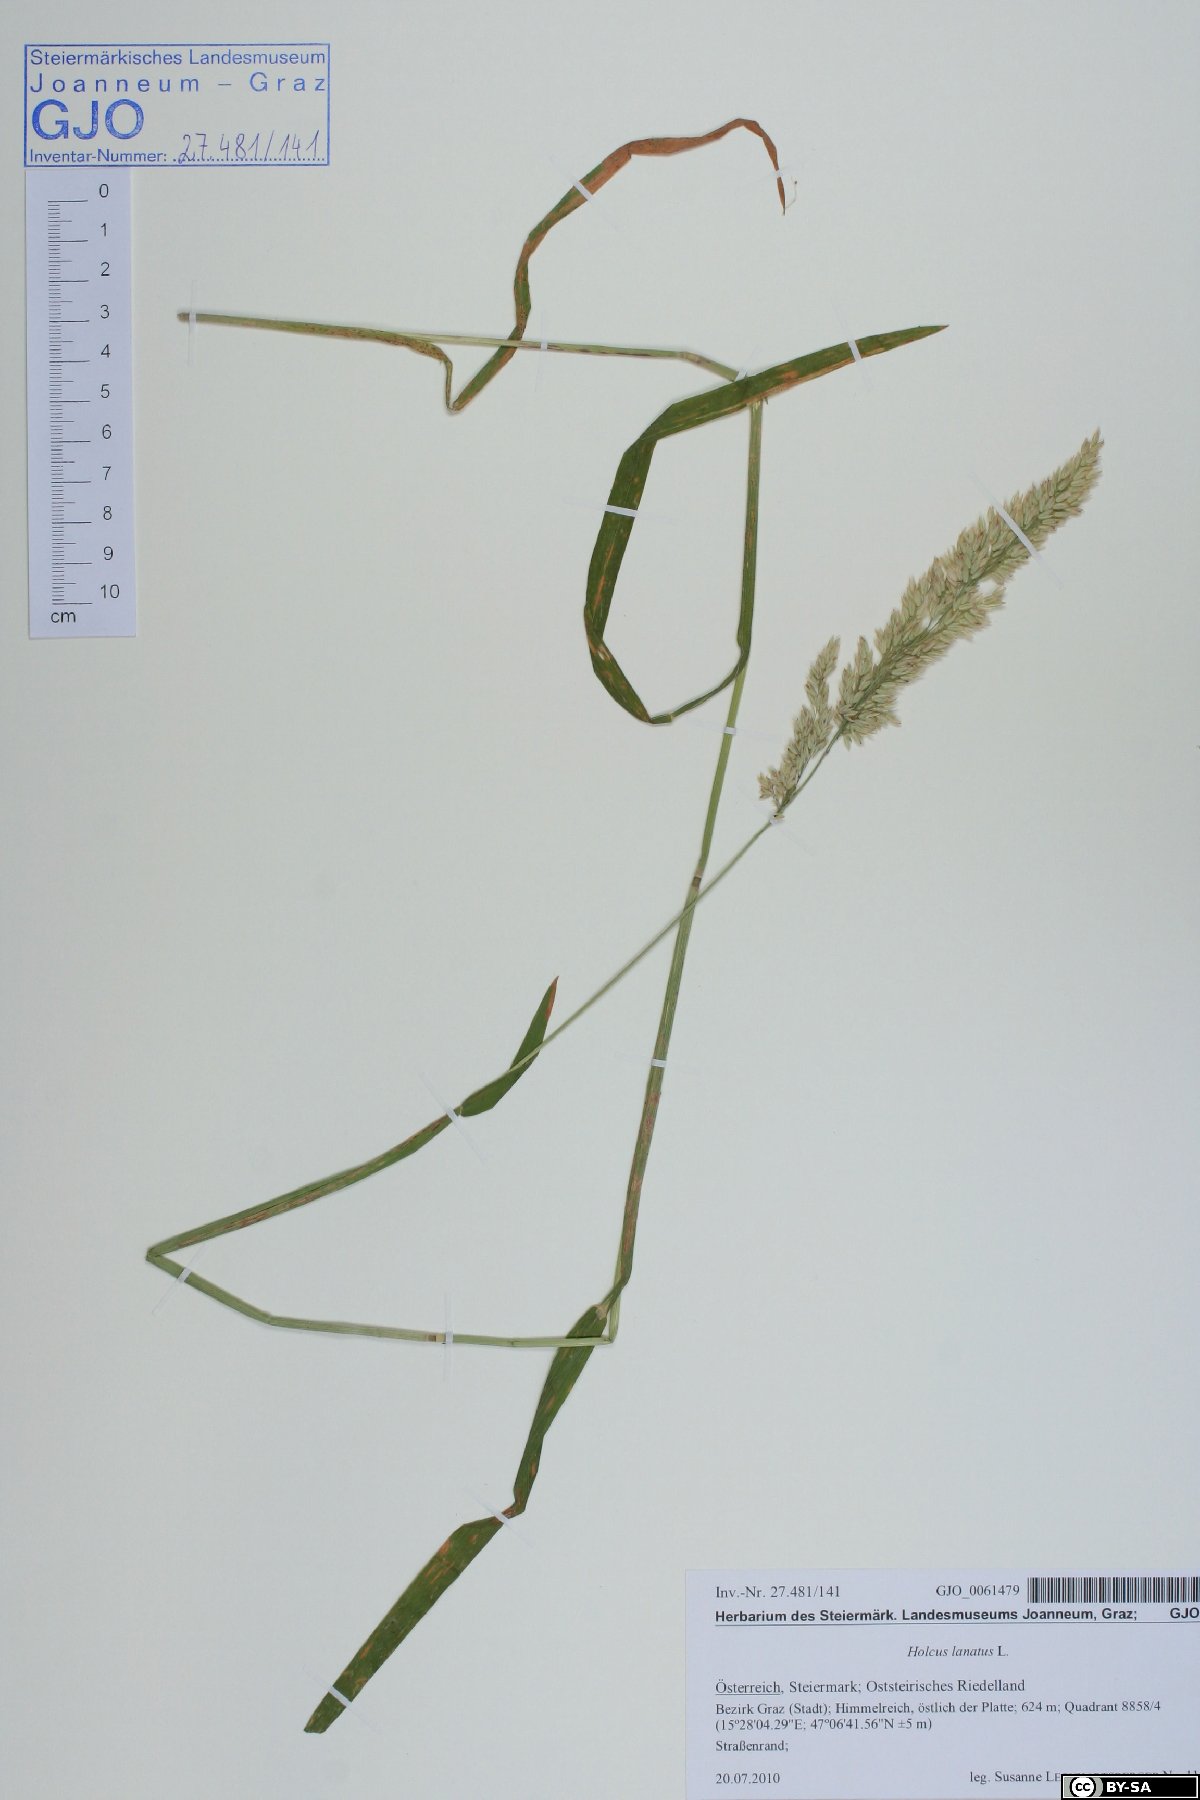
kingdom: Plantae
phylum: Tracheophyta
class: Liliopsida
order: Poales
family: Poaceae
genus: Holcus
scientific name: Holcus lanatus
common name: Yorkshire-fog
